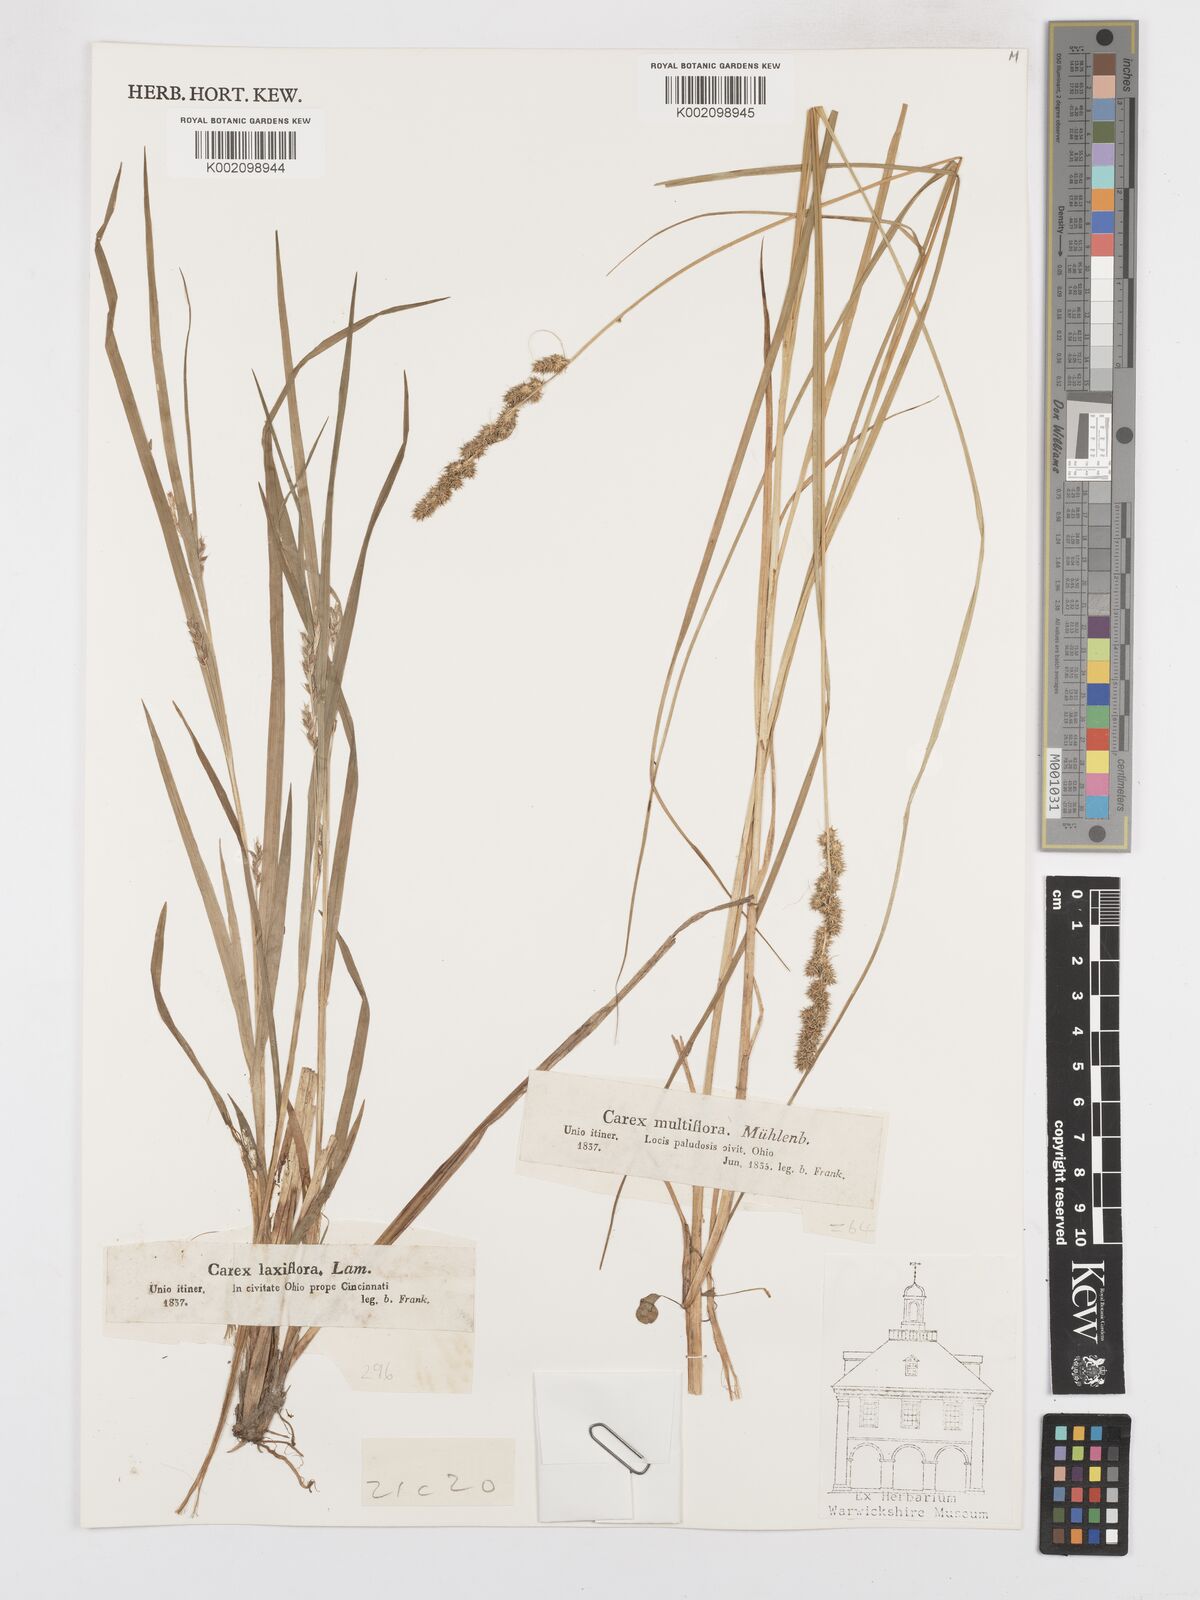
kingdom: Plantae
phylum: Tracheophyta
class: Liliopsida
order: Poales
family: Cyperaceae
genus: Carex
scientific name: Carex vulpinoidea
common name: American fox-sedge
